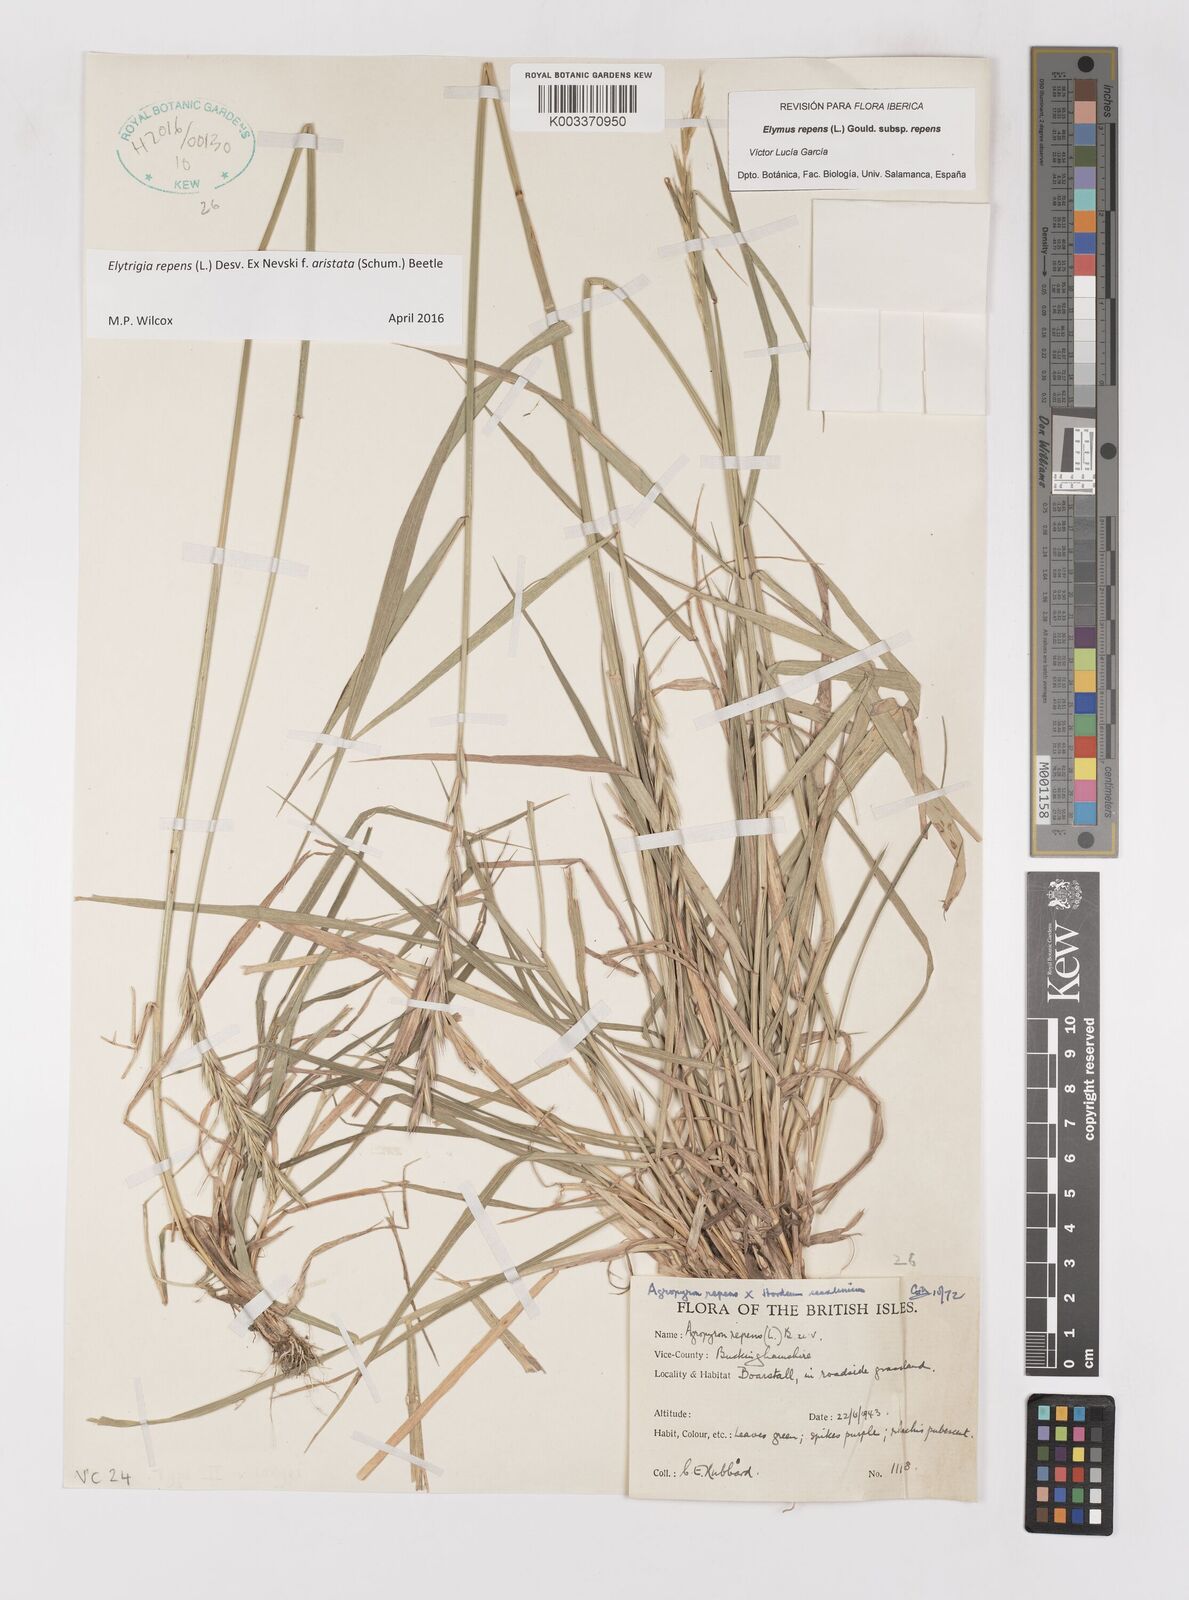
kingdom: Plantae
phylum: Tracheophyta
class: Liliopsida
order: Poales
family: Poaceae
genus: Elymus
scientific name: Elymus repens
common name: Quackgrass
